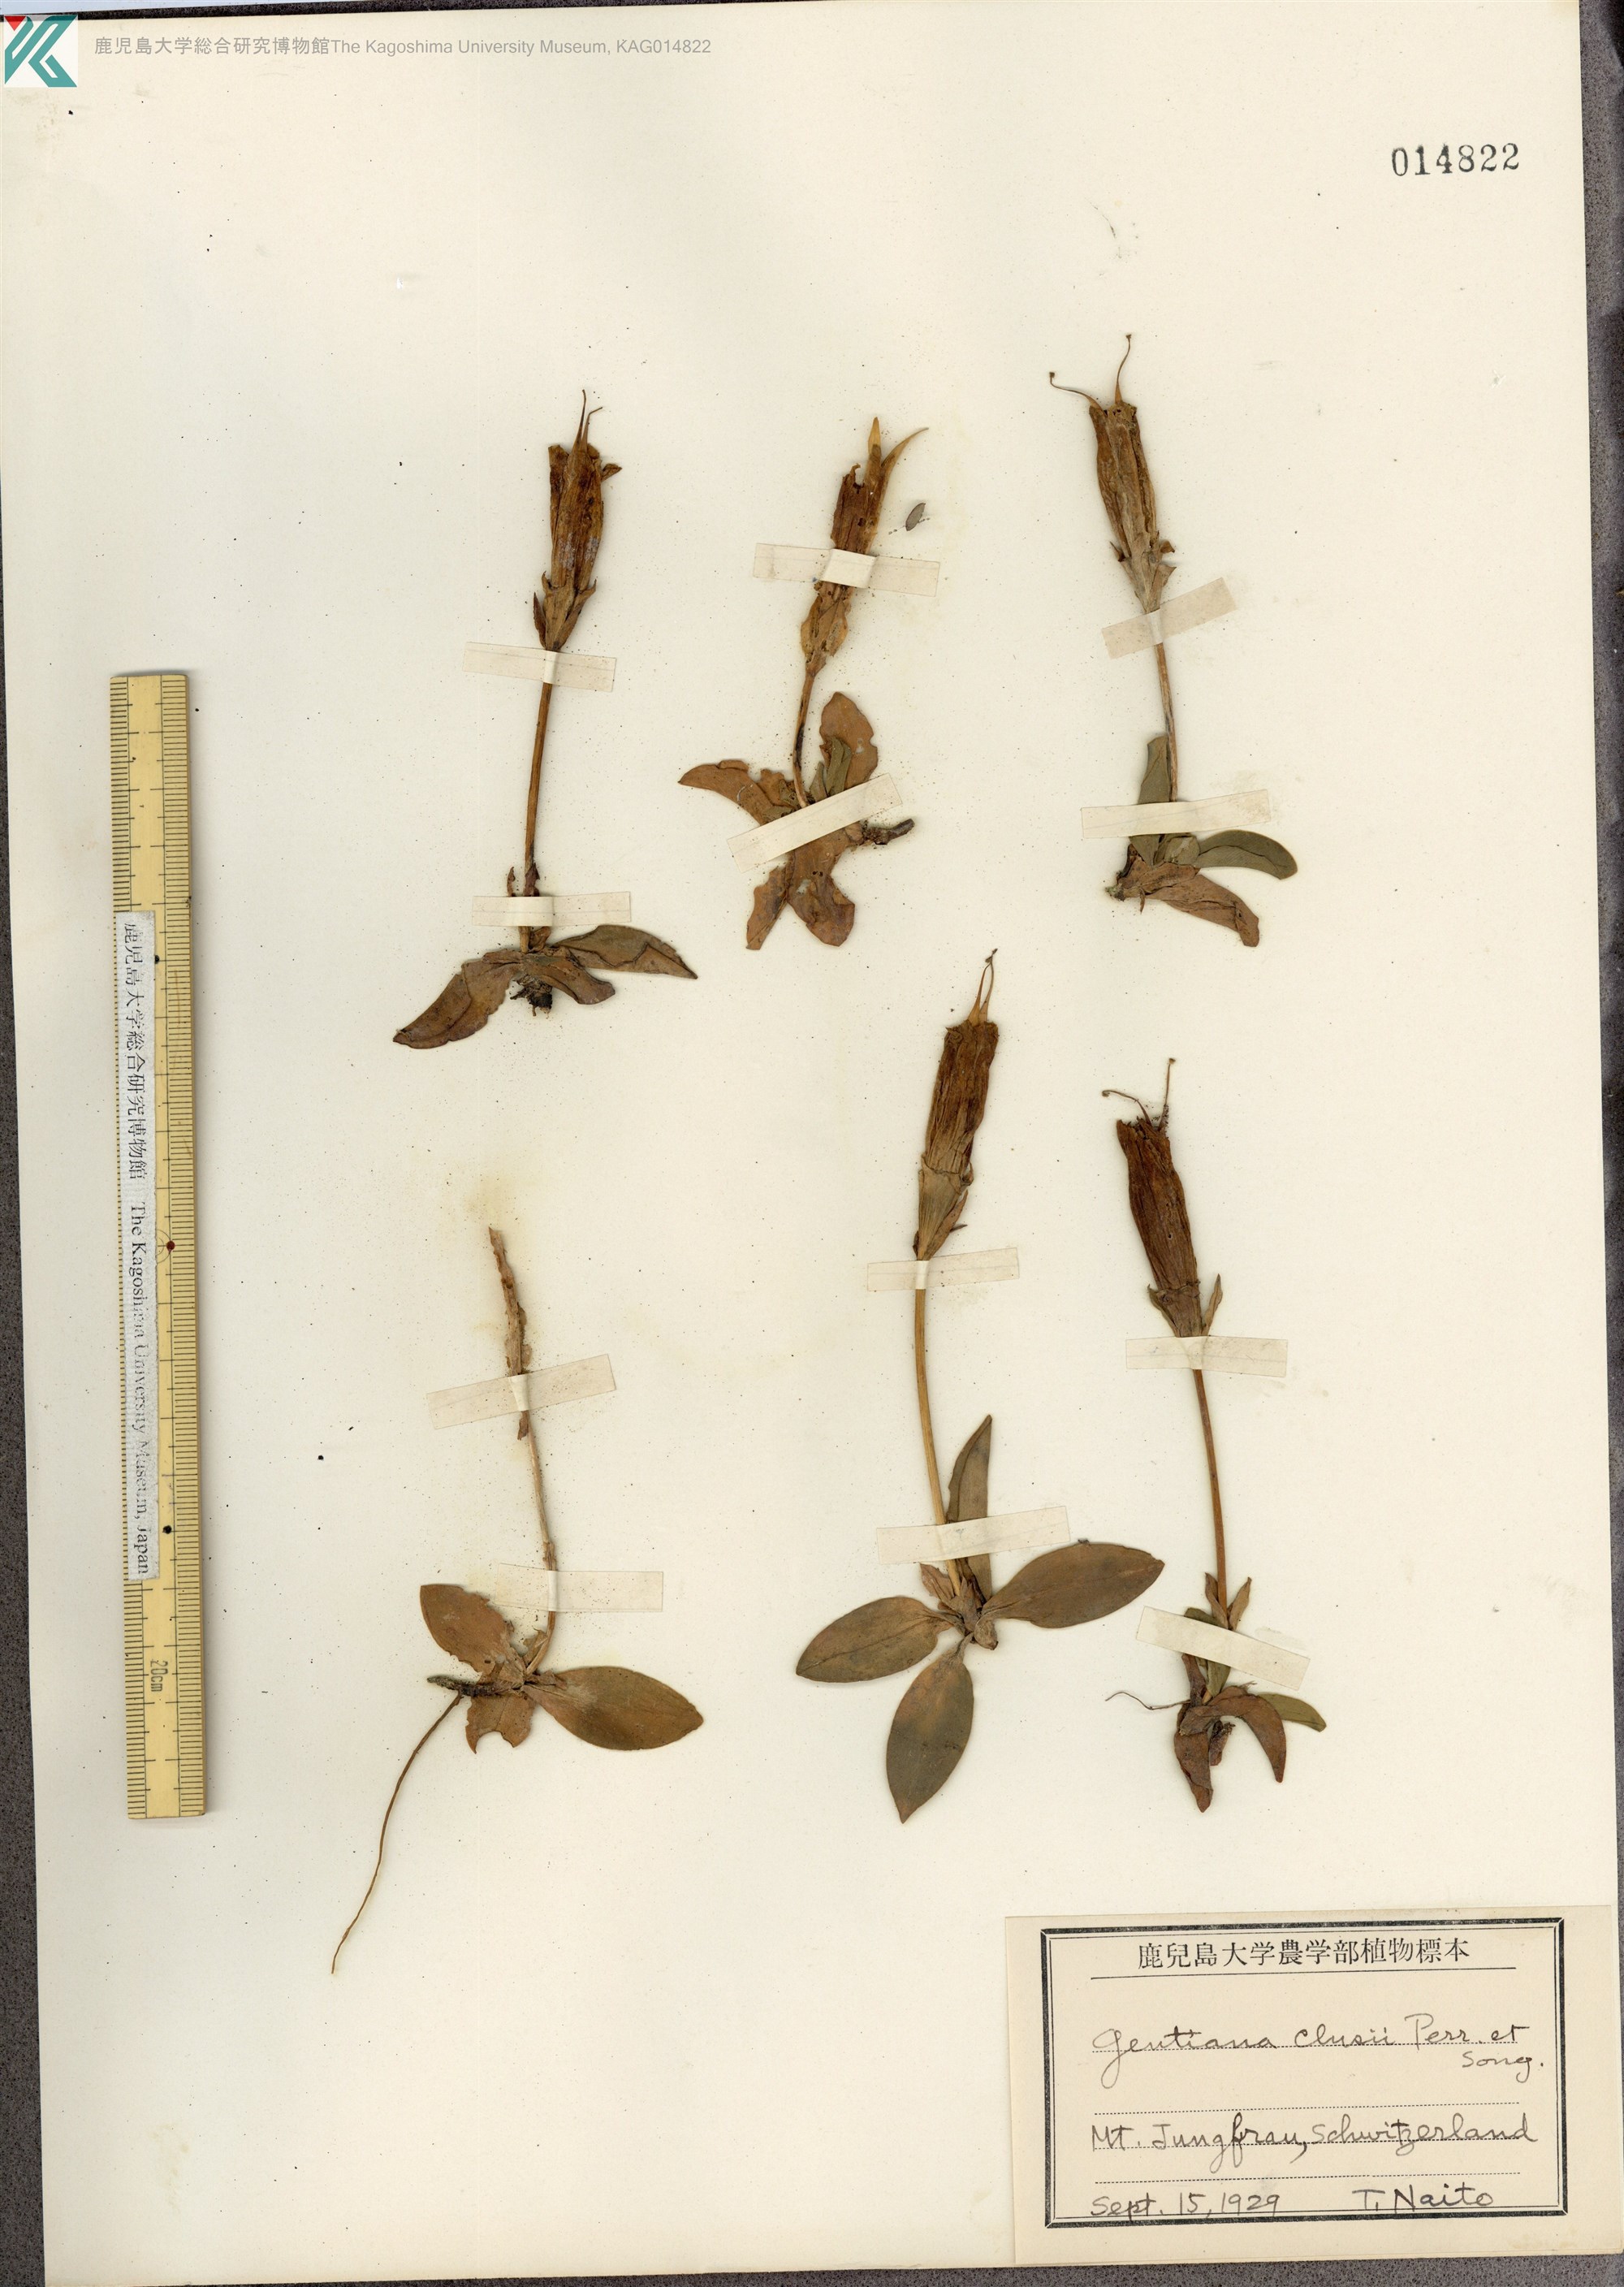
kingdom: Plantae
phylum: Tracheophyta
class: Magnoliopsida
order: Gentianales
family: Gentianaceae
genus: Gentiana
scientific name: Gentiana clusii
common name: Trumpet gentian
